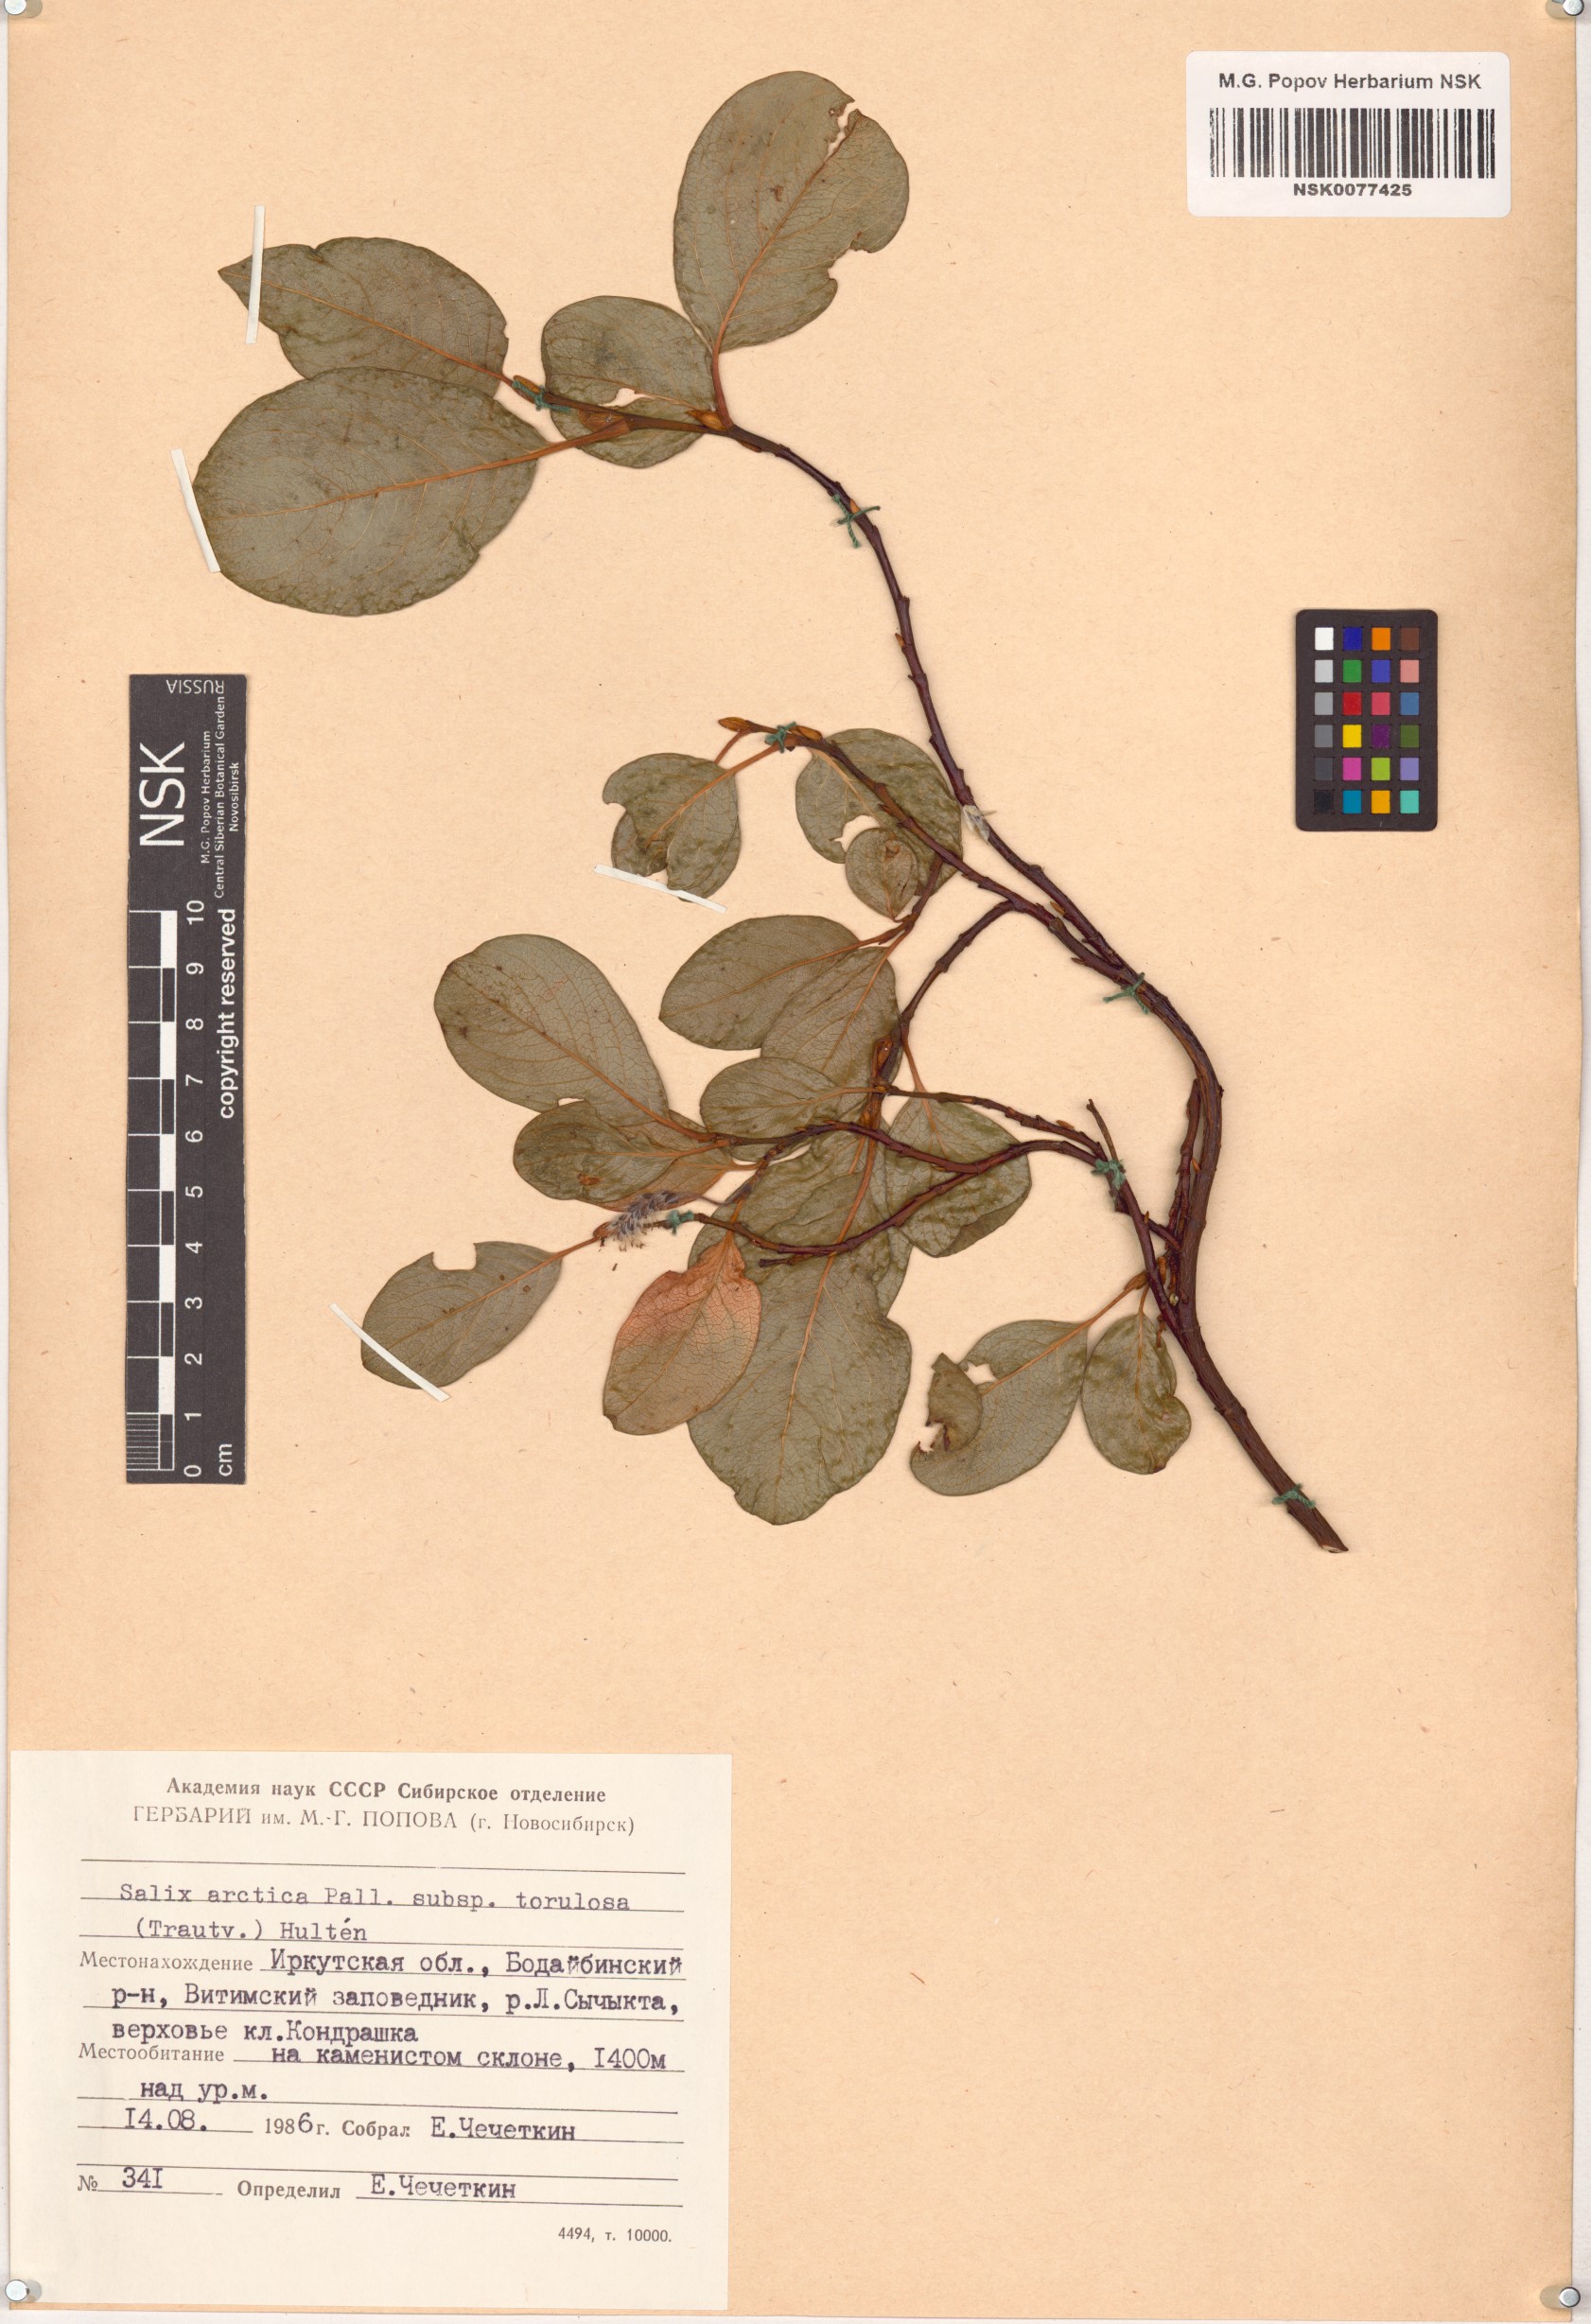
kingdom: Plantae
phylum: Tracheophyta
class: Magnoliopsida
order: Malpighiales
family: Salicaceae
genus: Salix
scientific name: Salix arctica
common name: Arctic willow
